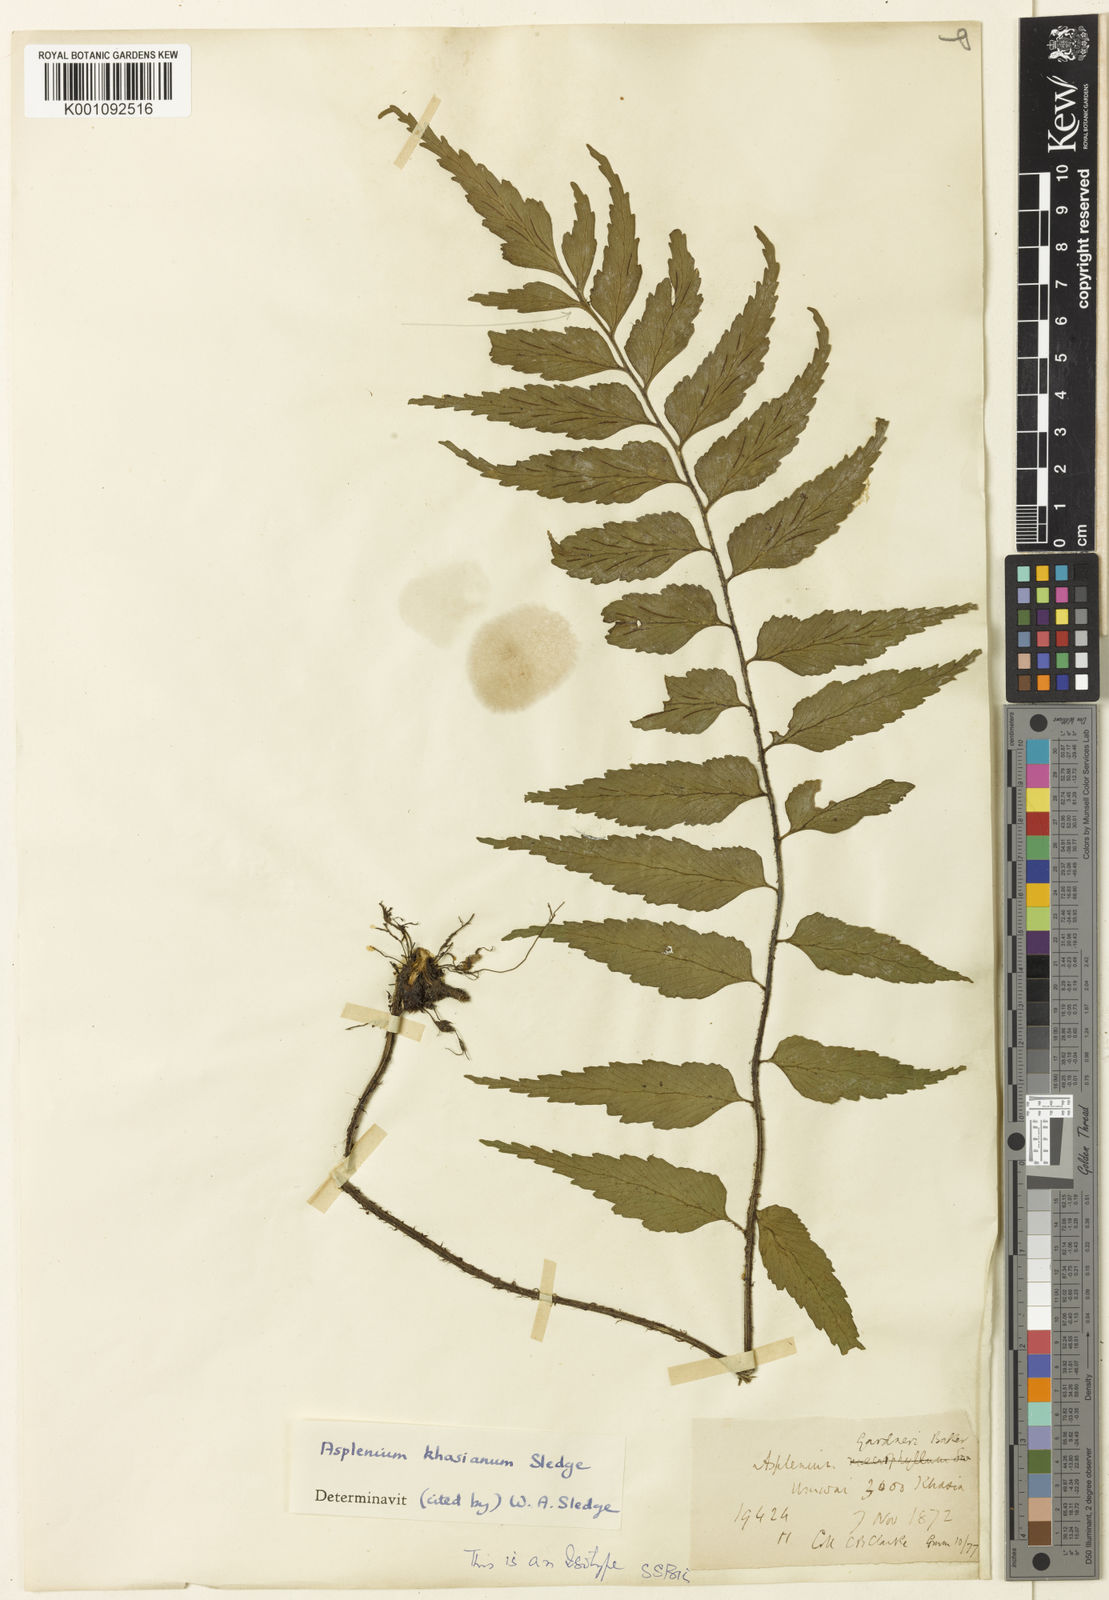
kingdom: Plantae
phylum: Tracheophyta
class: Polypodiopsida
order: Polypodiales
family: Aspleniaceae
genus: Asplenium
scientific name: Asplenium trapezoideum
